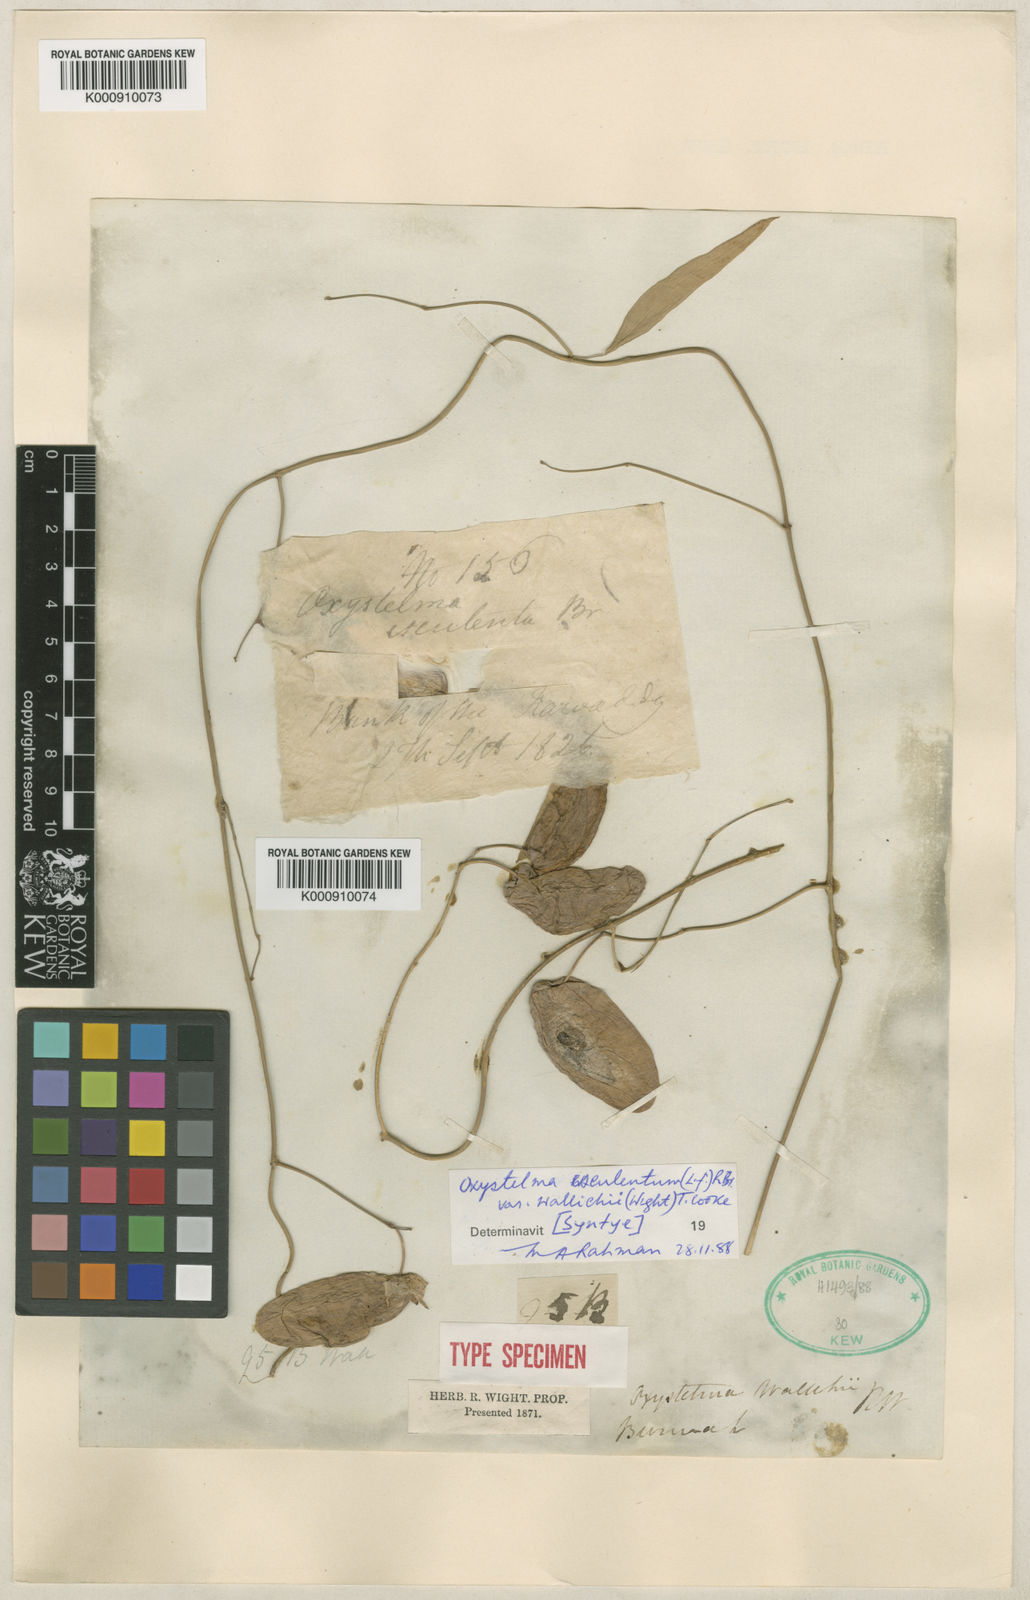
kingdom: Plantae
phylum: Tracheophyta
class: Magnoliopsida
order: Gentianales
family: Apocynaceae
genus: Oxystelma
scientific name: Oxystelma wallichii
